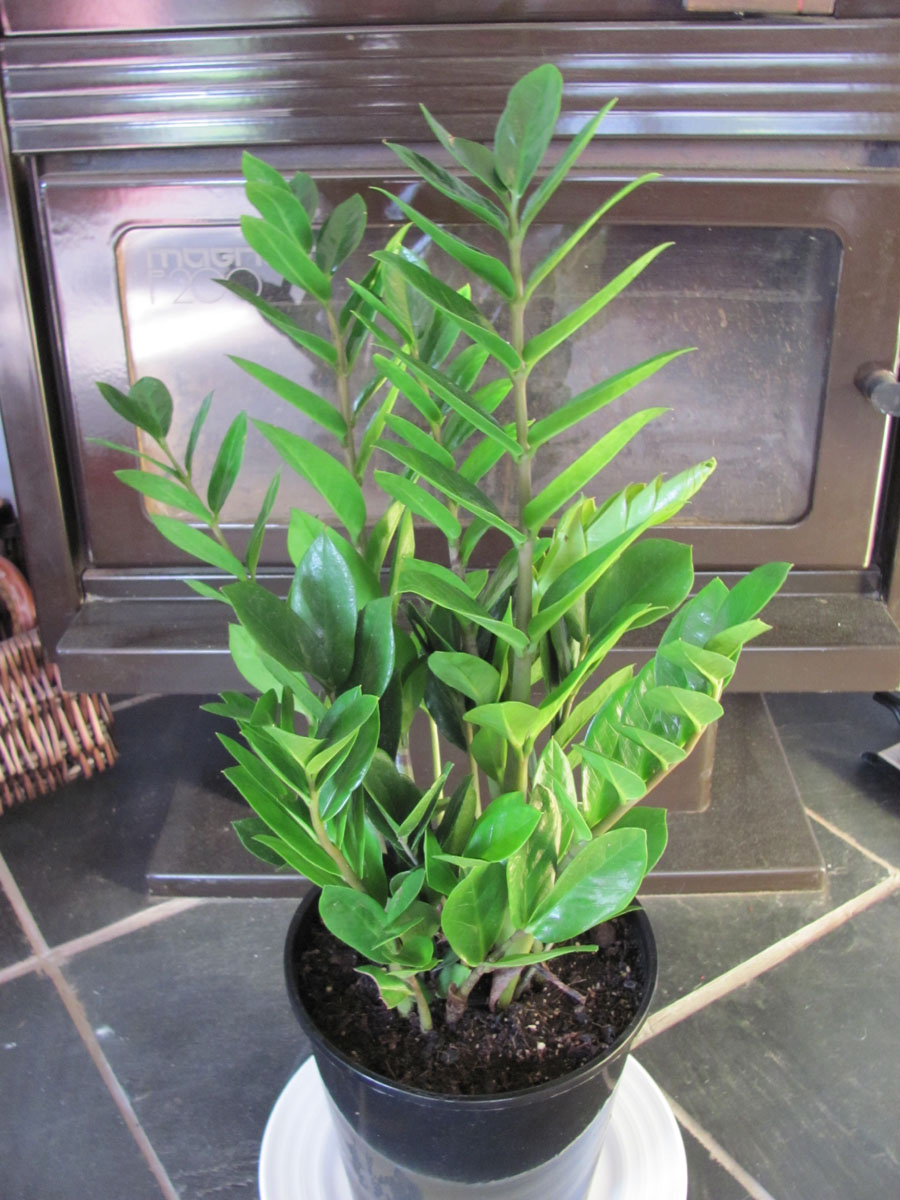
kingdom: Plantae
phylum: Tracheophyta
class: Liliopsida
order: Alismatales
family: Araceae
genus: Zamioculcas
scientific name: Zamioculcas zamiifolia
